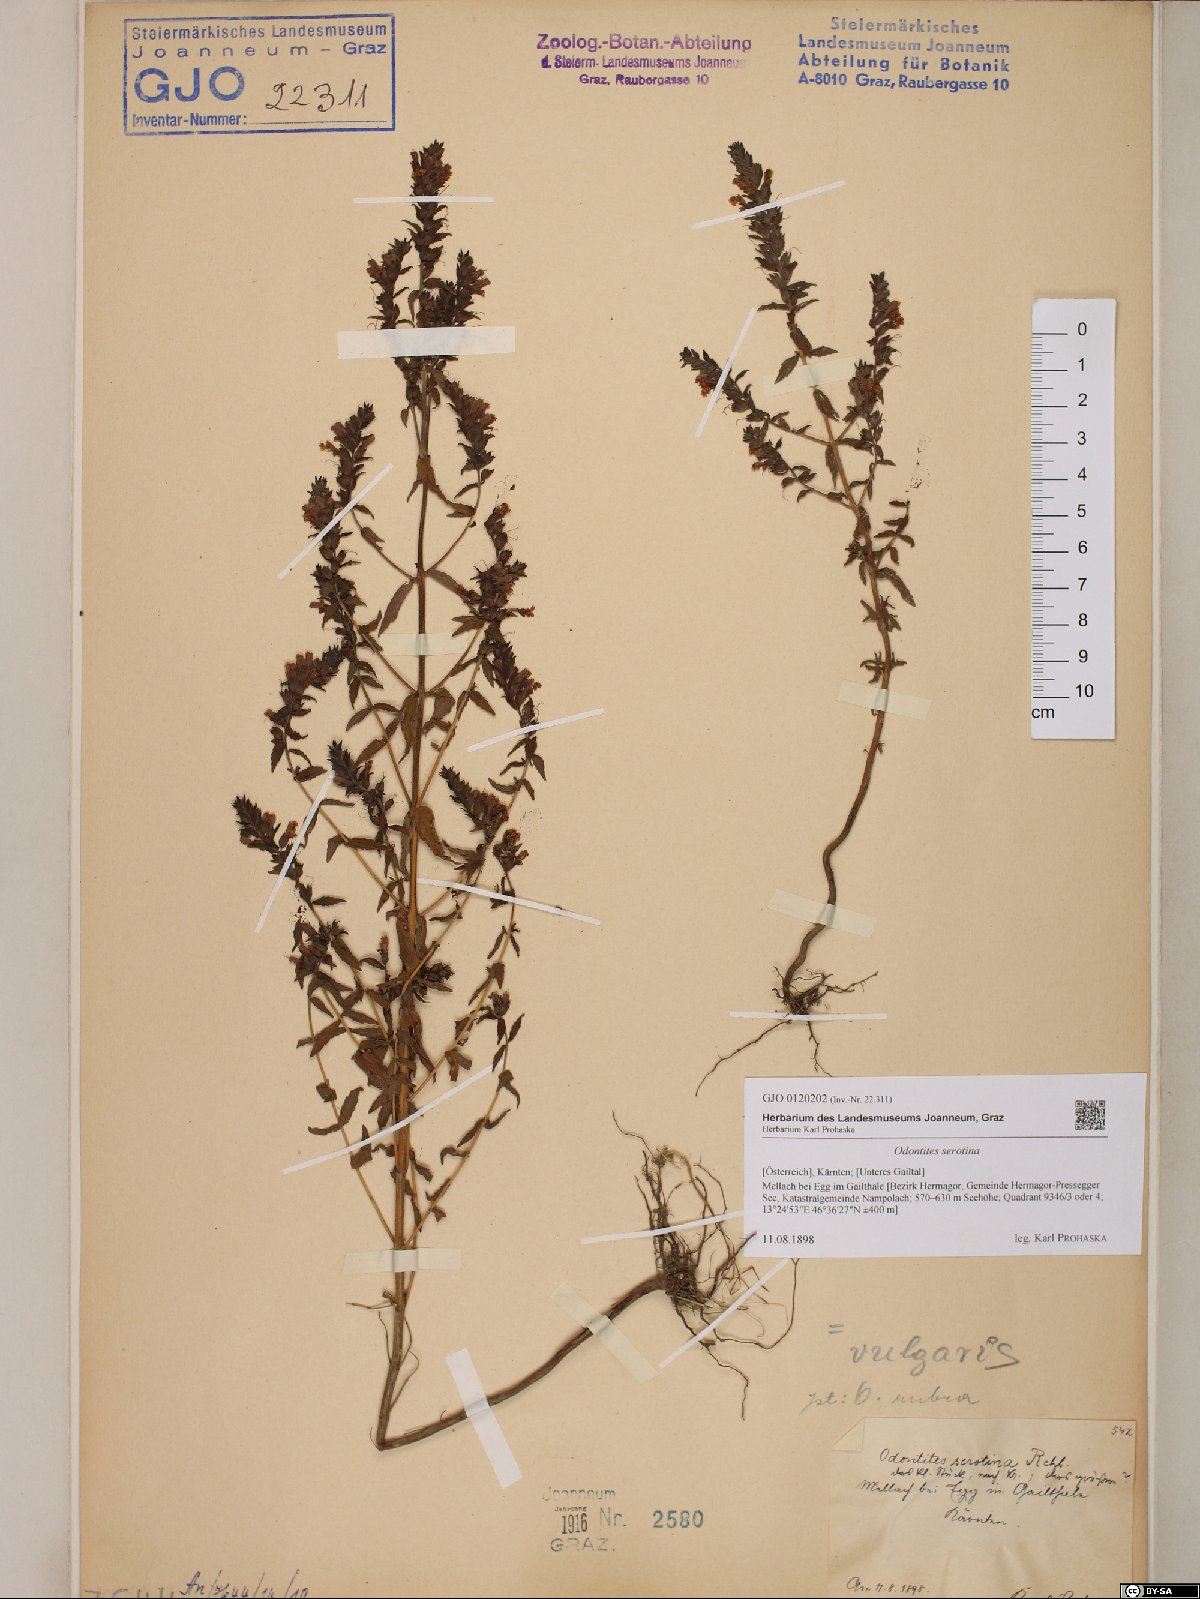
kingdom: Plantae
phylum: Tracheophyta
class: Magnoliopsida
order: Lamiales
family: Orobanchaceae
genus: Odontites
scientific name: Odontites vulgaris
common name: Broomrape
